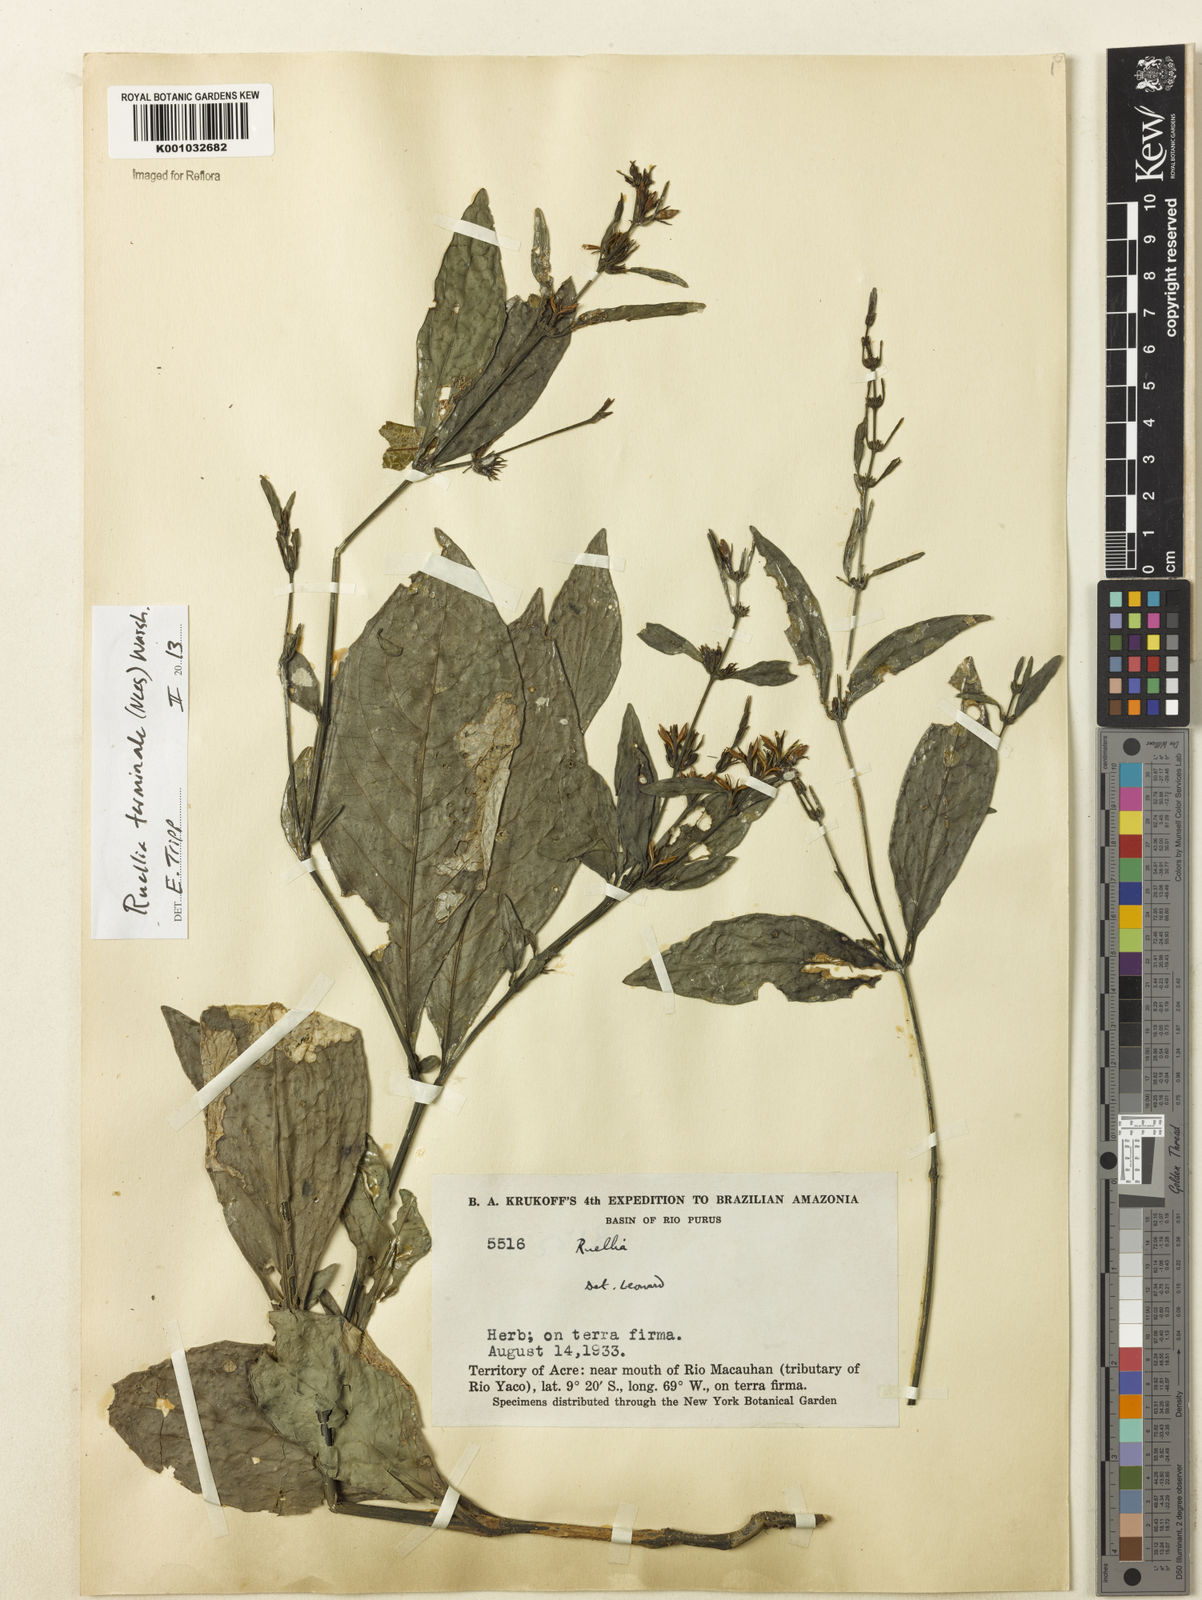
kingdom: Plantae
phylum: Tracheophyta
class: Magnoliopsida
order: Lamiales
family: Acanthaceae
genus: Ruellia
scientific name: Ruellia
